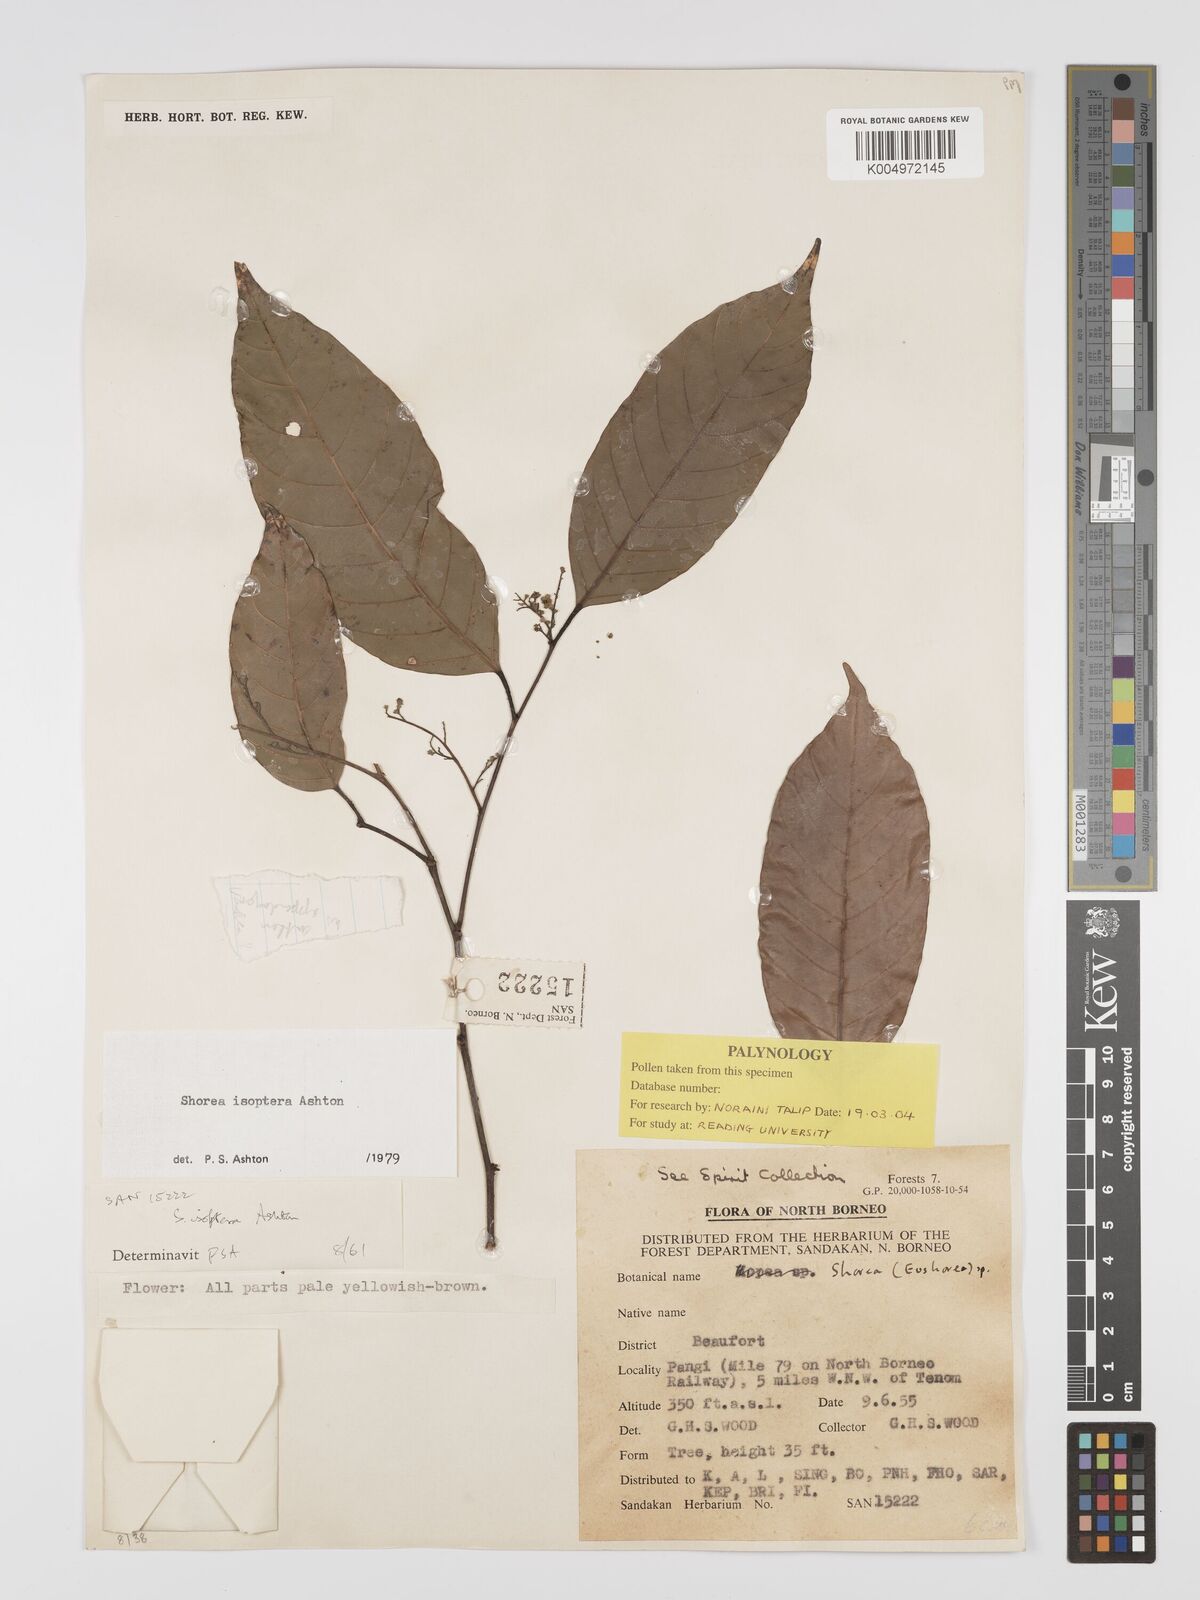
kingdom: Plantae
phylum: Tracheophyta
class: Magnoliopsida
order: Malvales
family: Dipterocarpaceae
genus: Neohopea
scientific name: Neohopea isoptera
